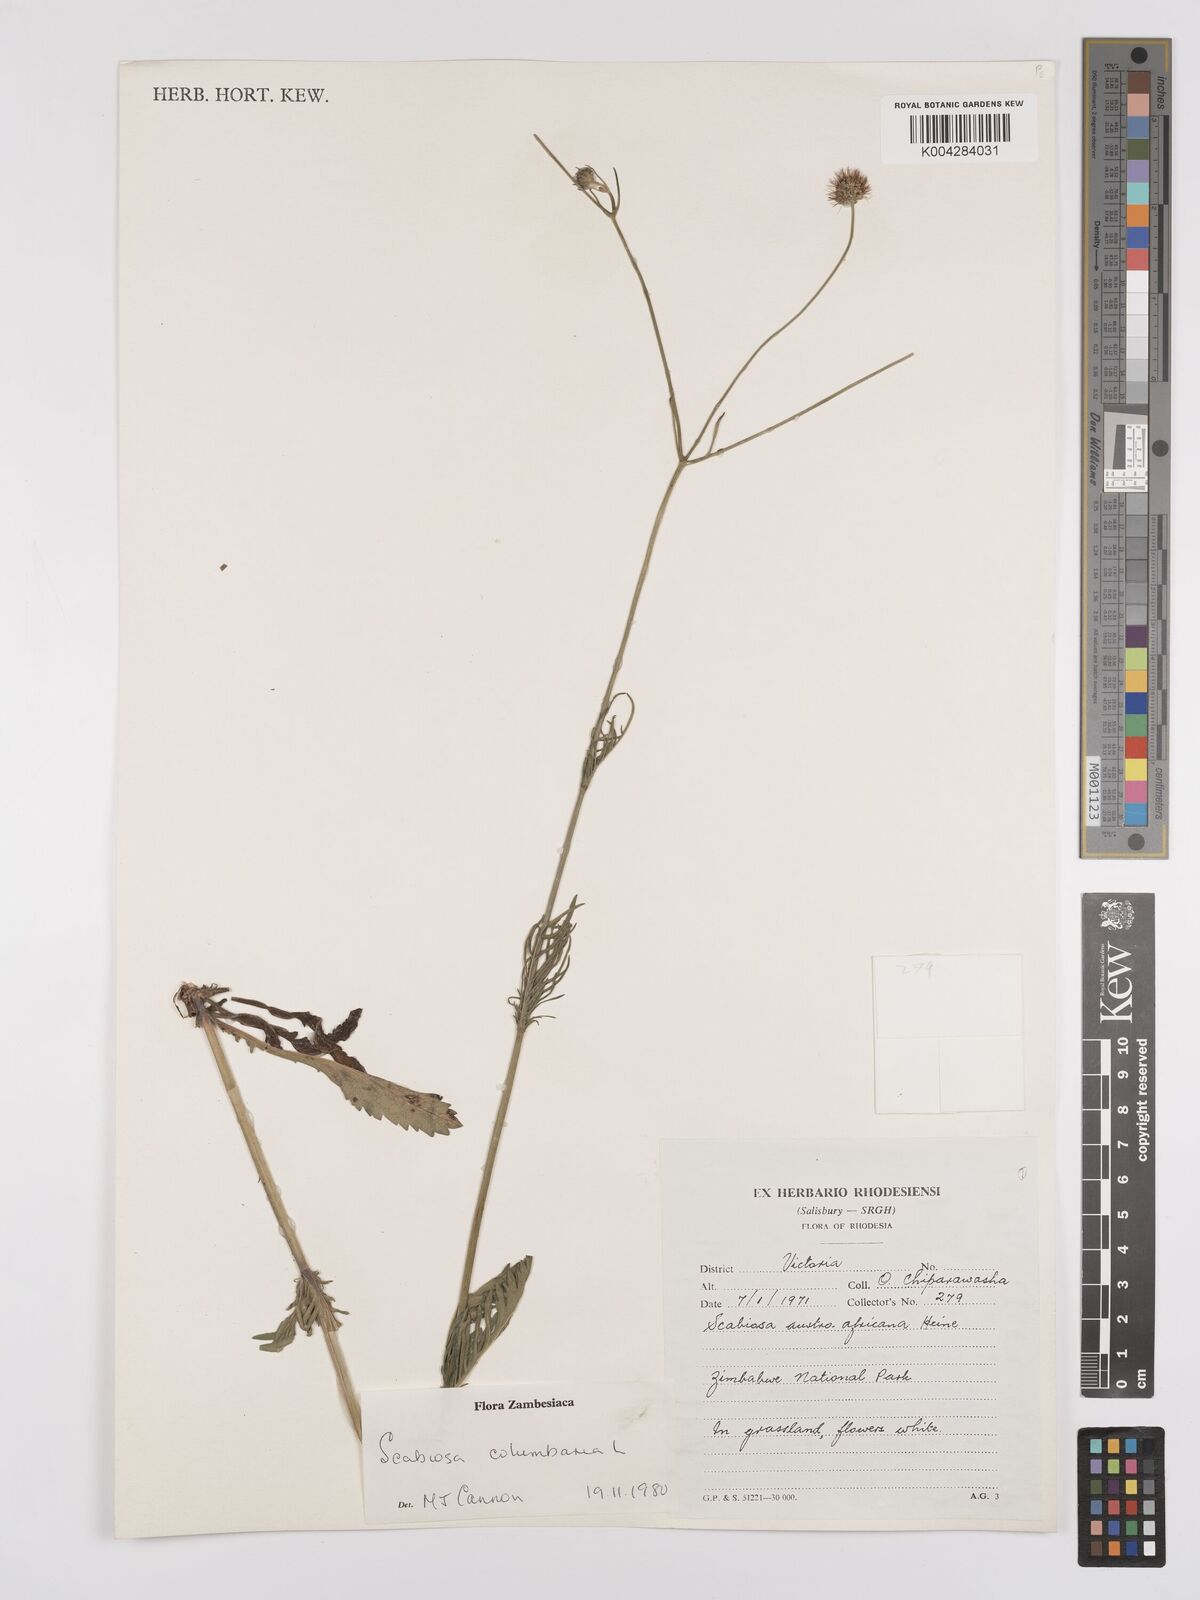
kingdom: Plantae
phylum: Tracheophyta
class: Magnoliopsida
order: Dipsacales
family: Caprifoliaceae
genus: Scabiosa
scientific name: Scabiosa austroafricana
